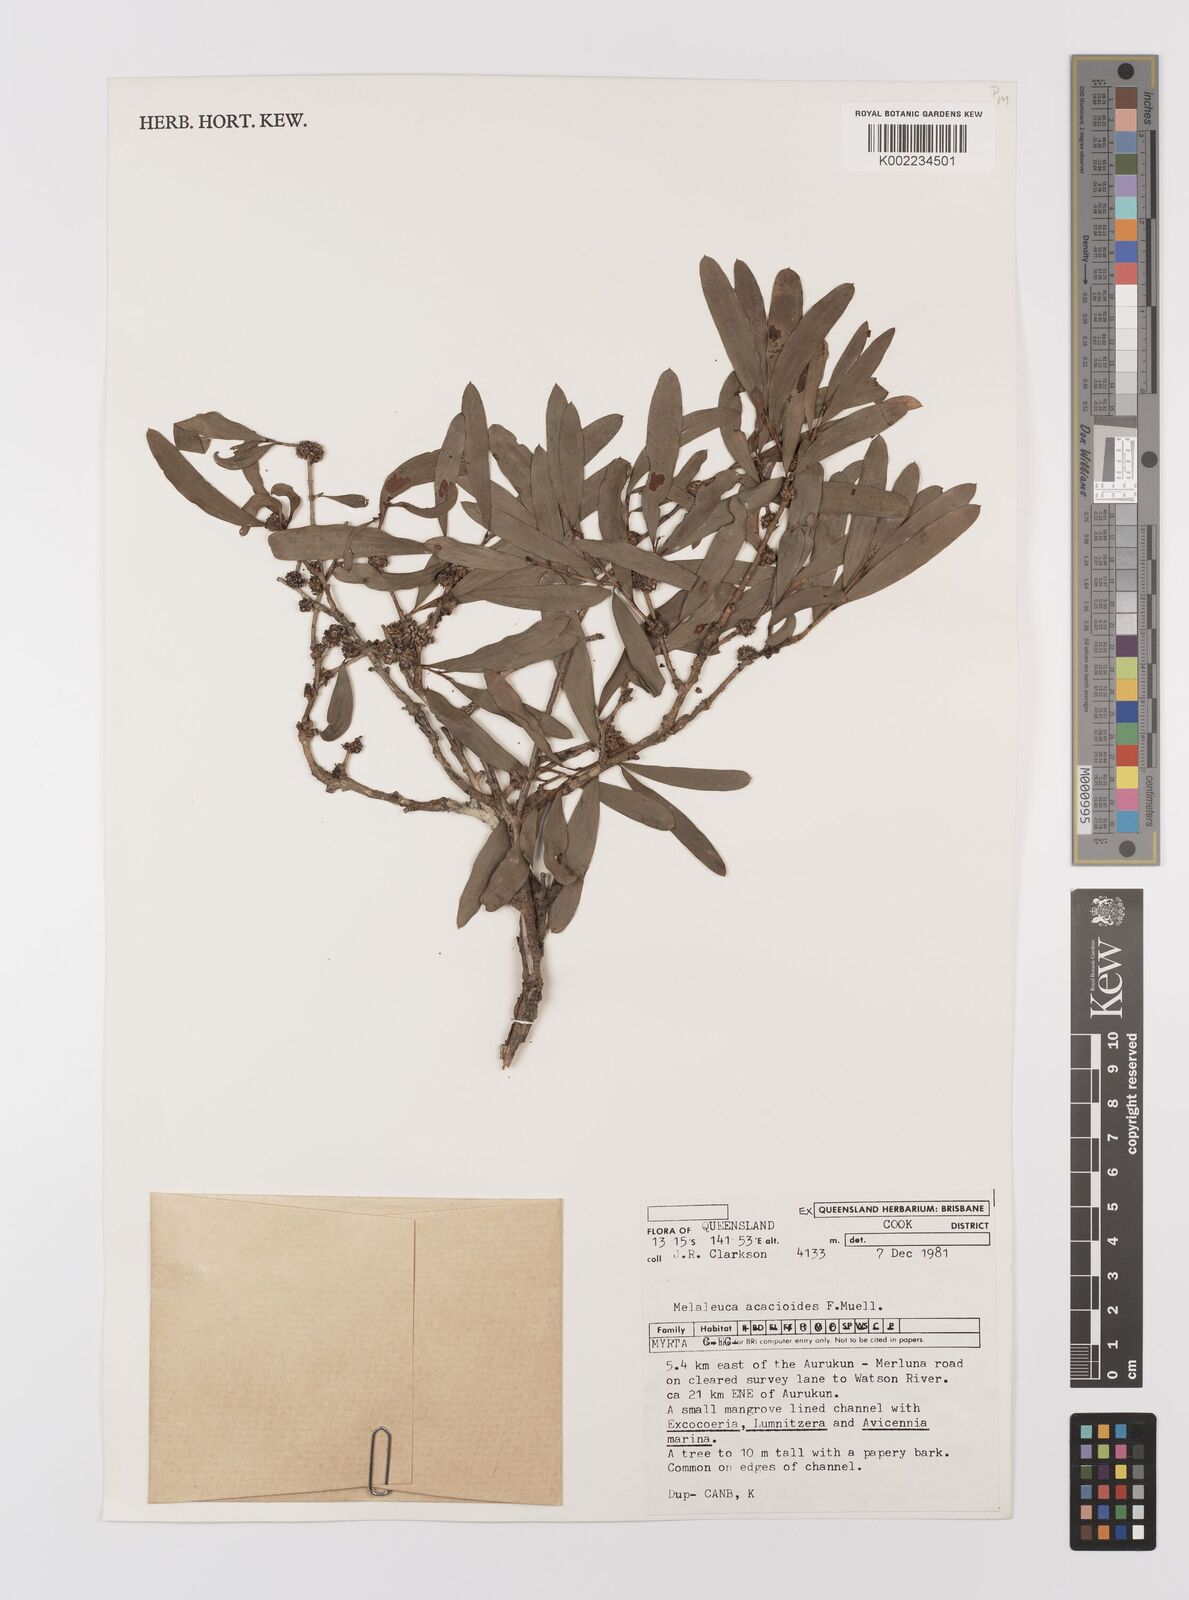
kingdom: Plantae
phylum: Tracheophyta
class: Magnoliopsida
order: Myrtales
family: Myrtaceae
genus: Melaleuca
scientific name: Melaleuca acacioides
